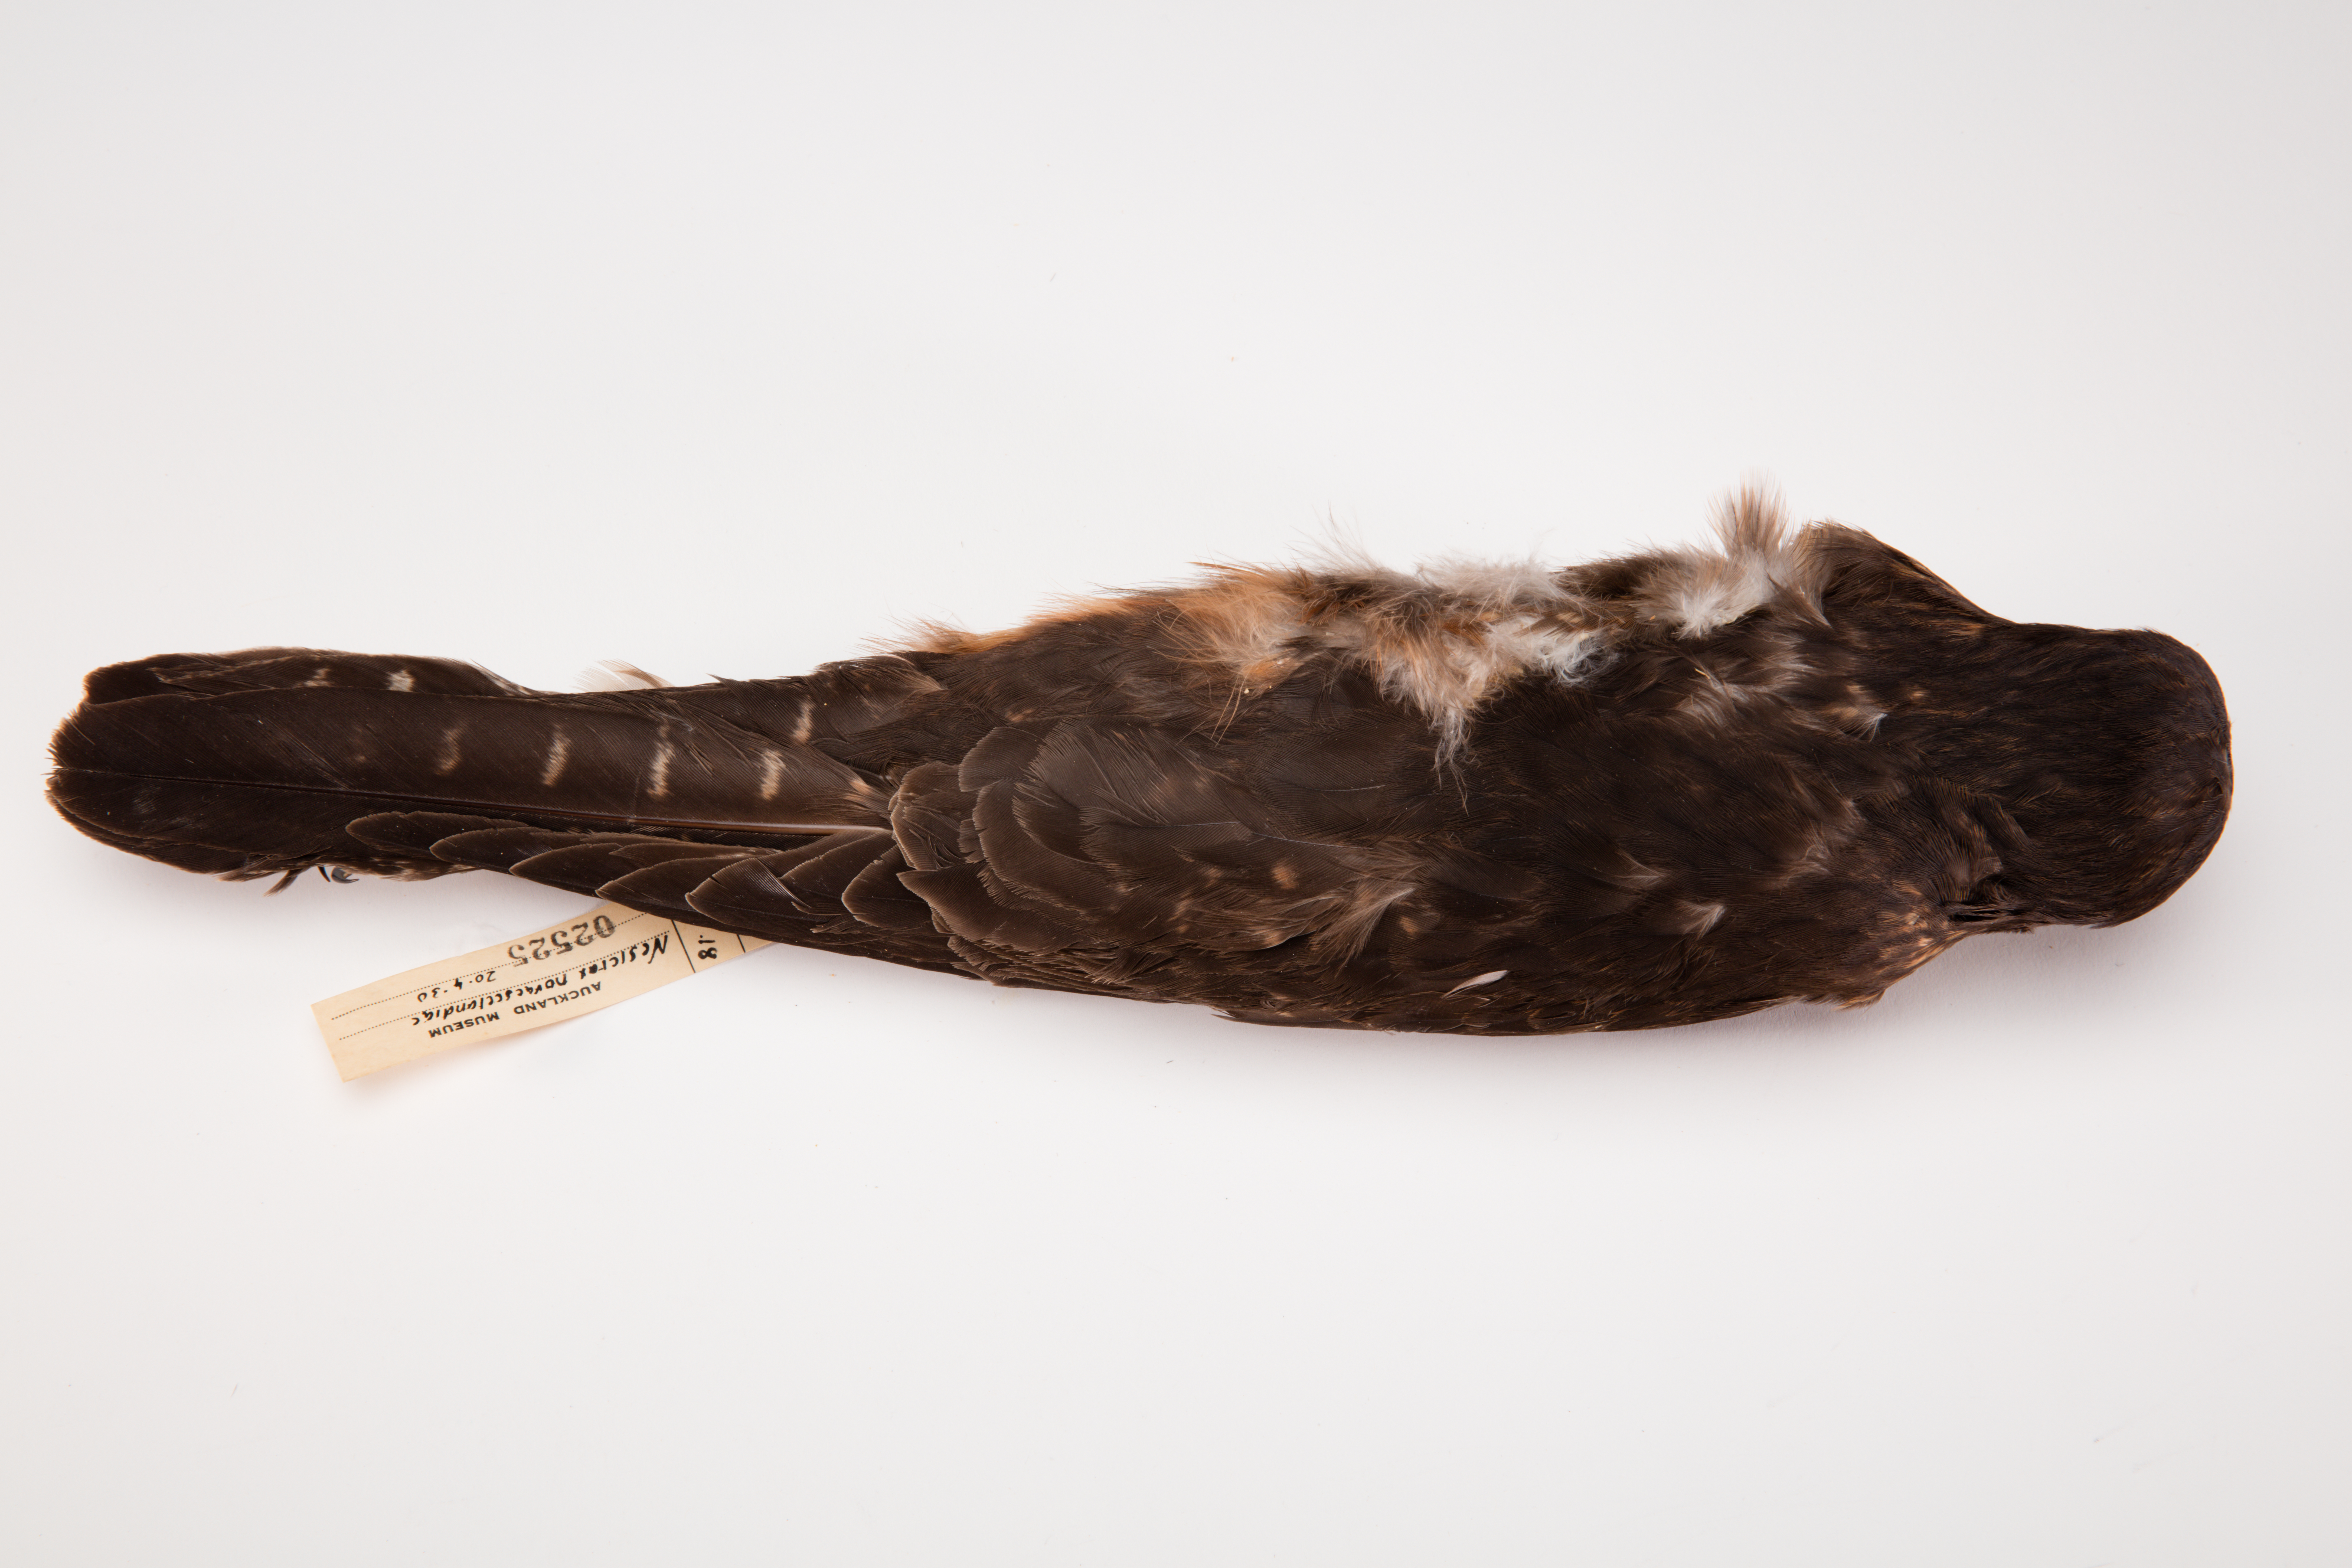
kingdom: Animalia
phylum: Chordata
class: Aves
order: Falconiformes
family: Falconidae
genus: Falco
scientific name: Falco novaeseelandiae
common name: New zealand falcon
